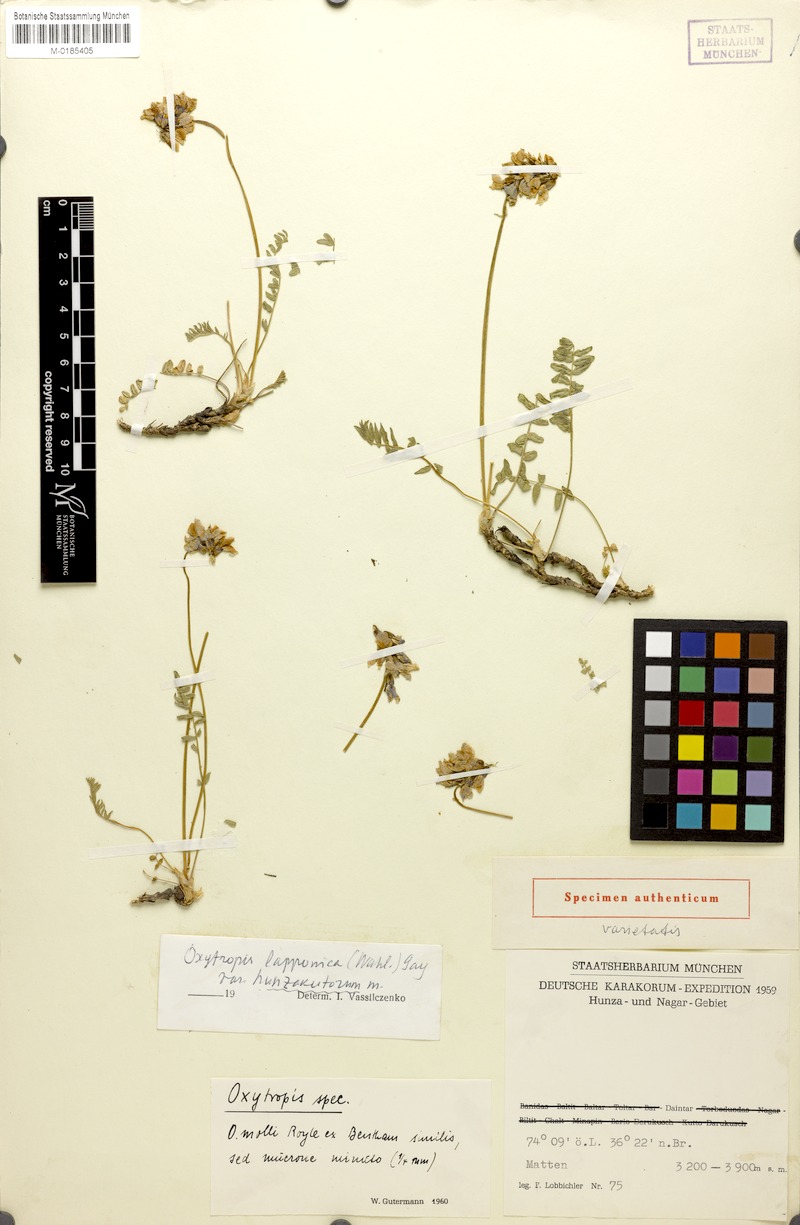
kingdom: Plantae
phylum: Tracheophyta
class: Magnoliopsida
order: Fabales
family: Fabaceae
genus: Oxytropis
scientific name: Oxytropis lapponica
